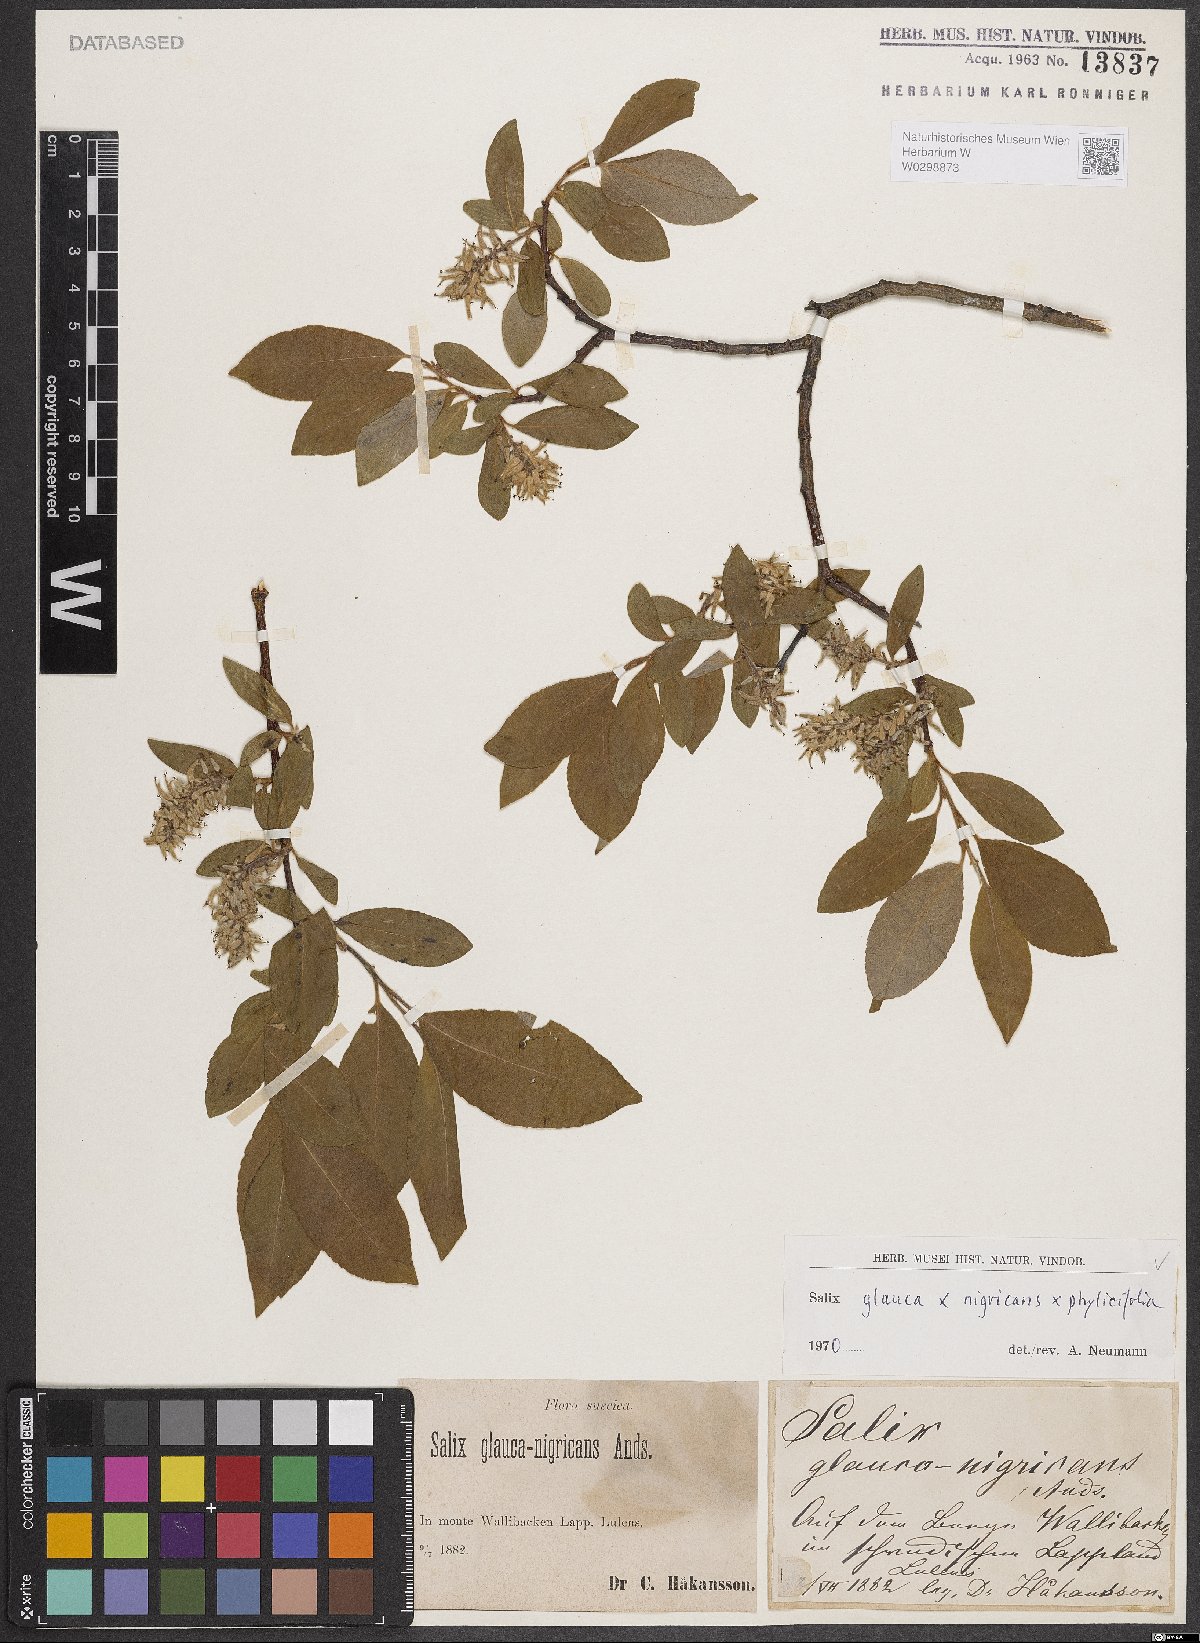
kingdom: Plantae
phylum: Tracheophyta
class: Magnoliopsida
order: Malpighiales
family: Salicaceae
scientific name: Salicaceae
